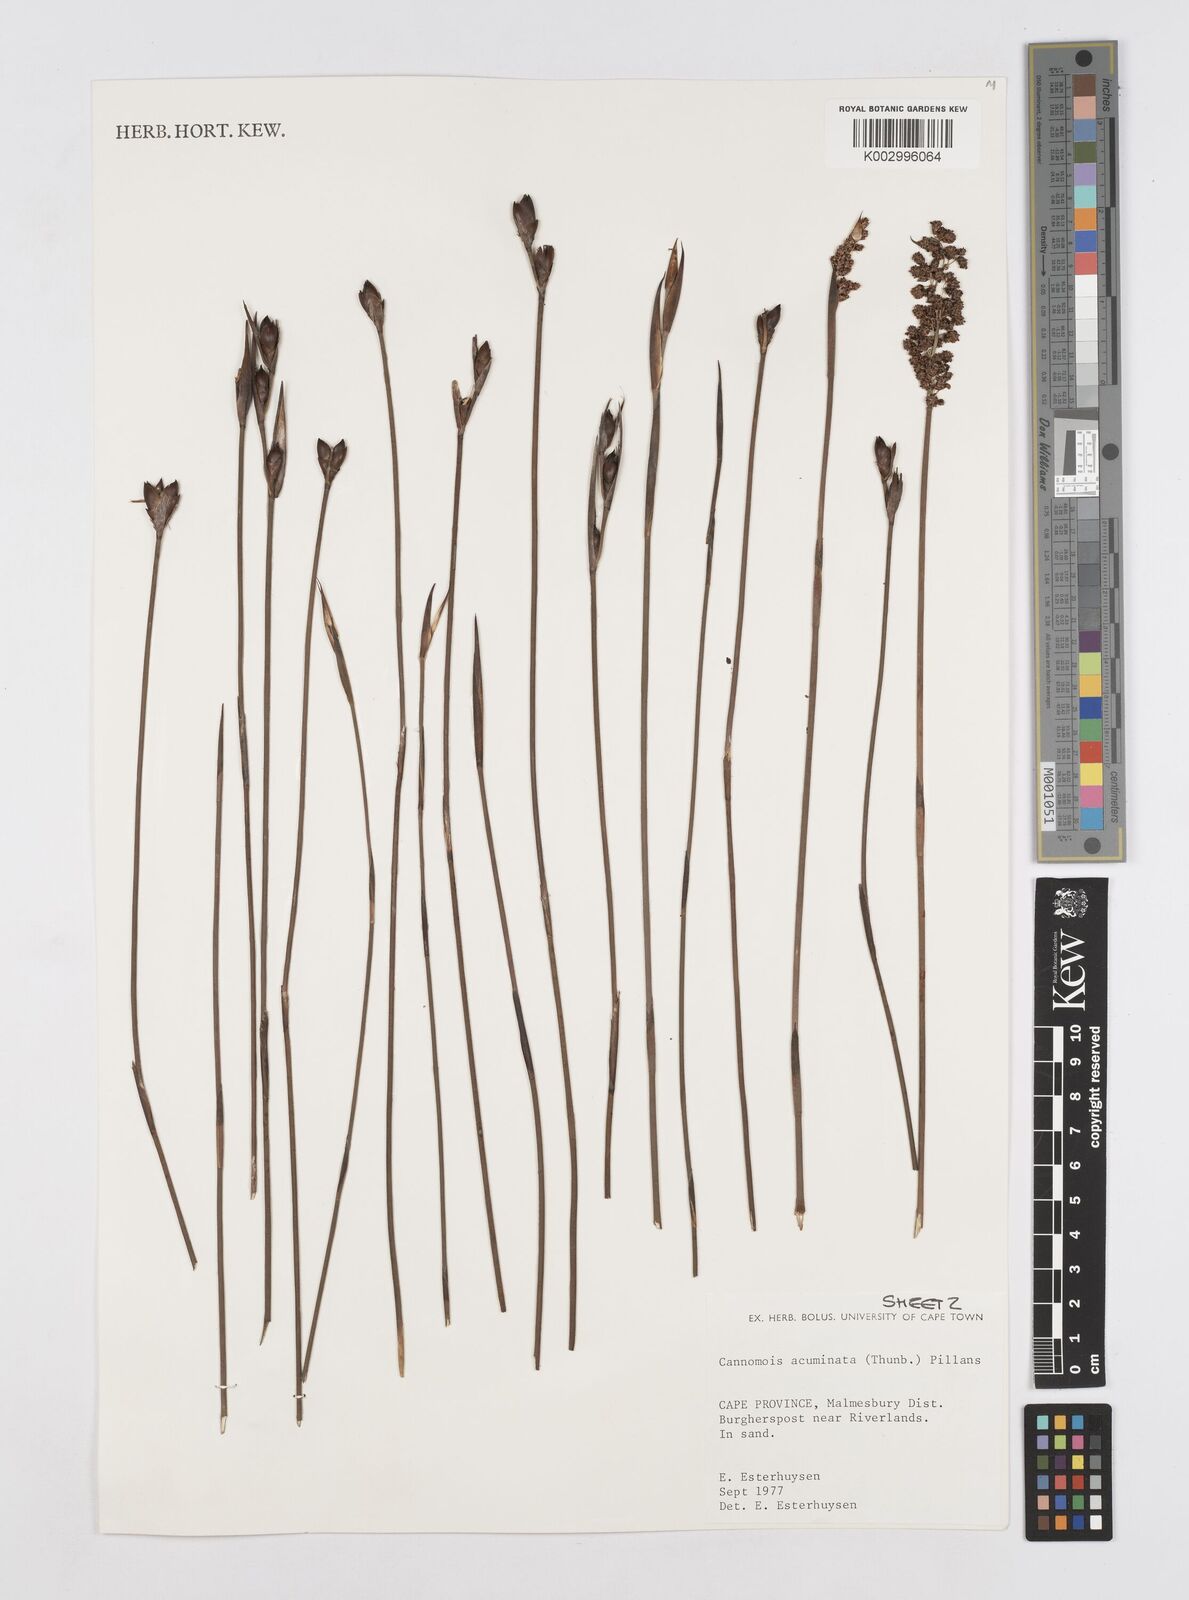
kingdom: Plantae
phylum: Tracheophyta
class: Liliopsida
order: Poales
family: Restionaceae
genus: Cannomois
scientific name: Cannomois parviflora
